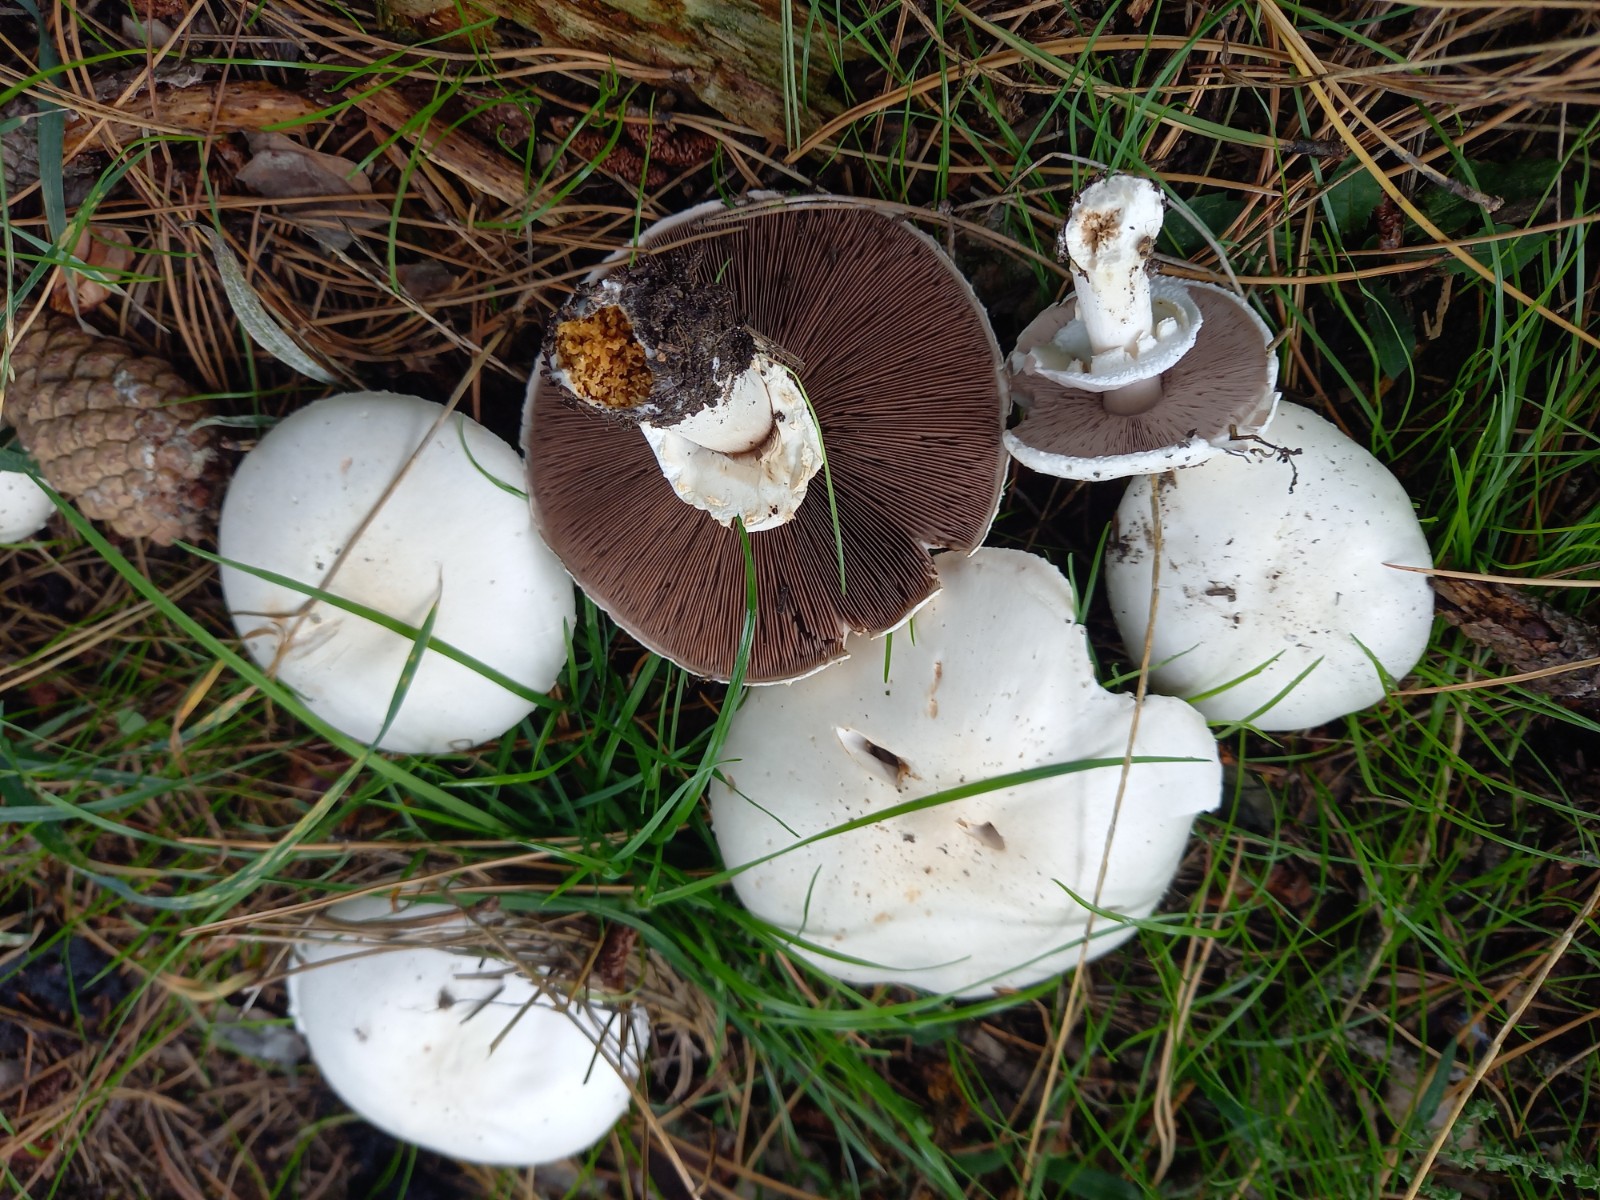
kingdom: Fungi
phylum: Basidiomycota
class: Agaricomycetes
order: Agaricales
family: Agaricaceae
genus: Agaricus
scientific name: Agaricus arvensis
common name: ager-champignon
